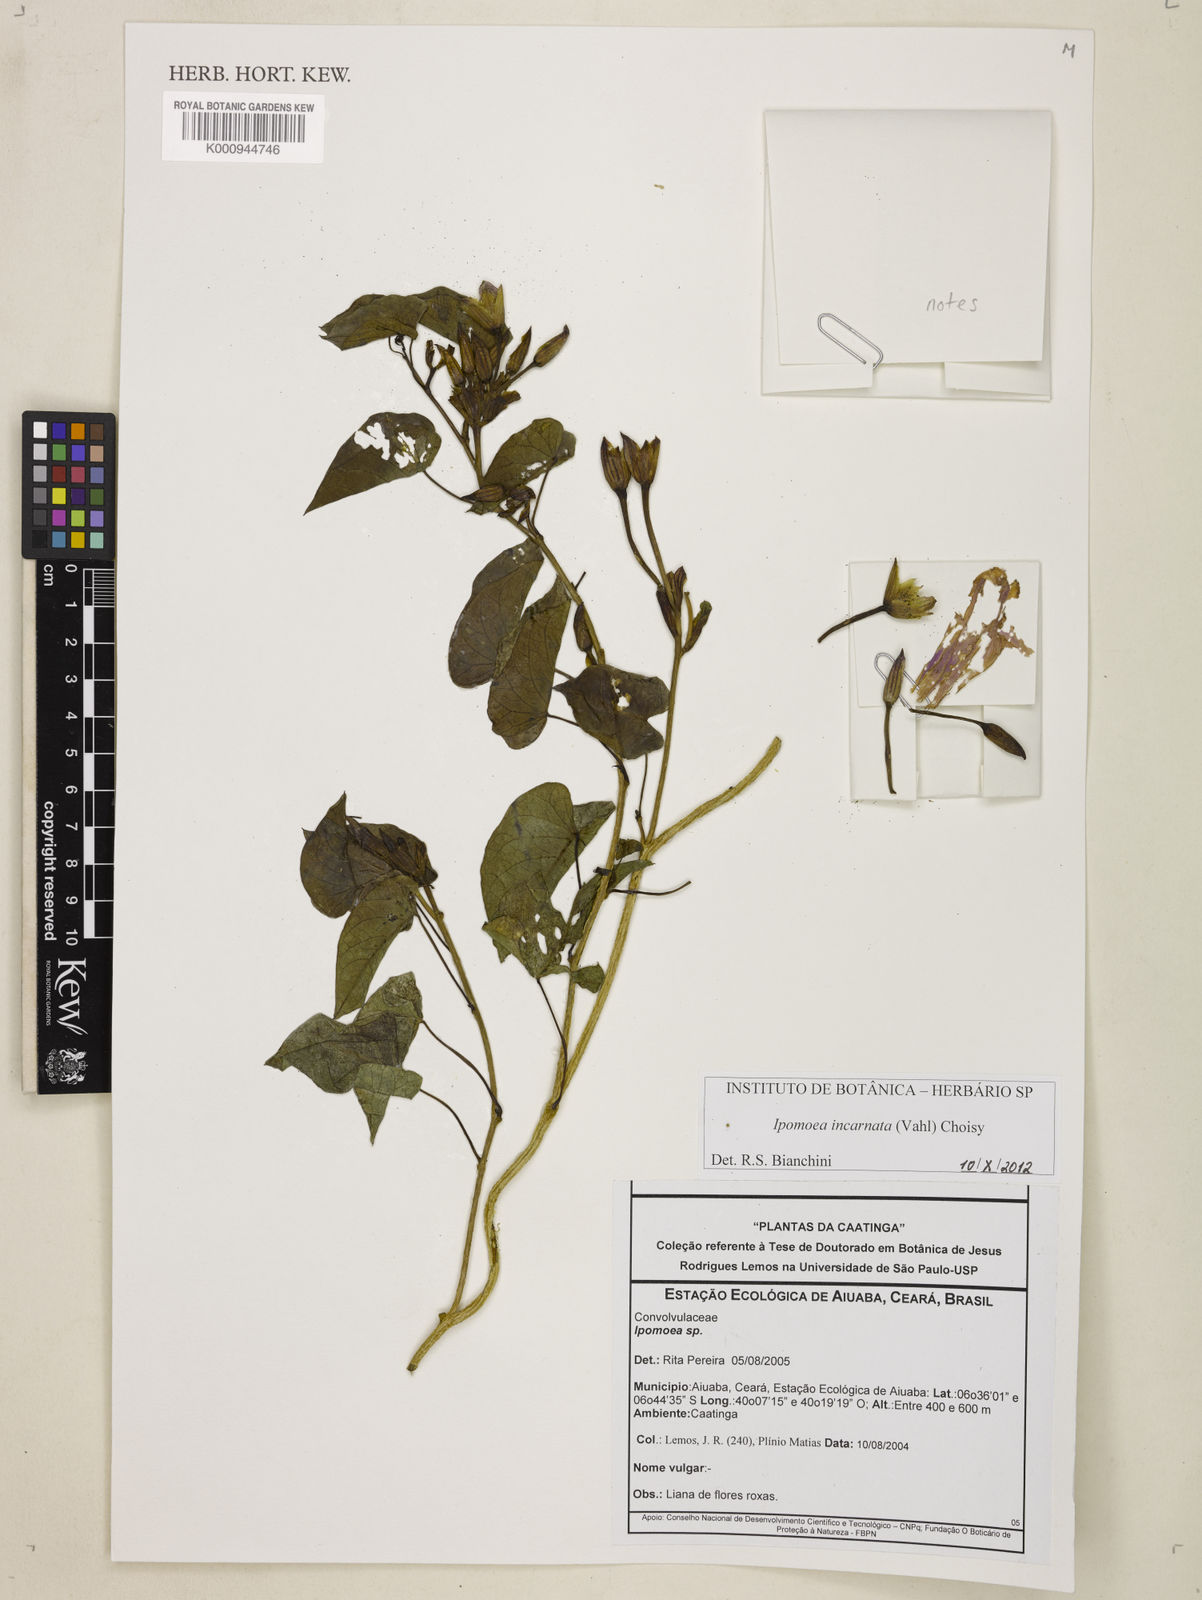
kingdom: Plantae
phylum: Tracheophyta
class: Magnoliopsida
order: Solanales
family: Convolvulaceae
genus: Ipomoea
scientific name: Ipomoea incarnata
